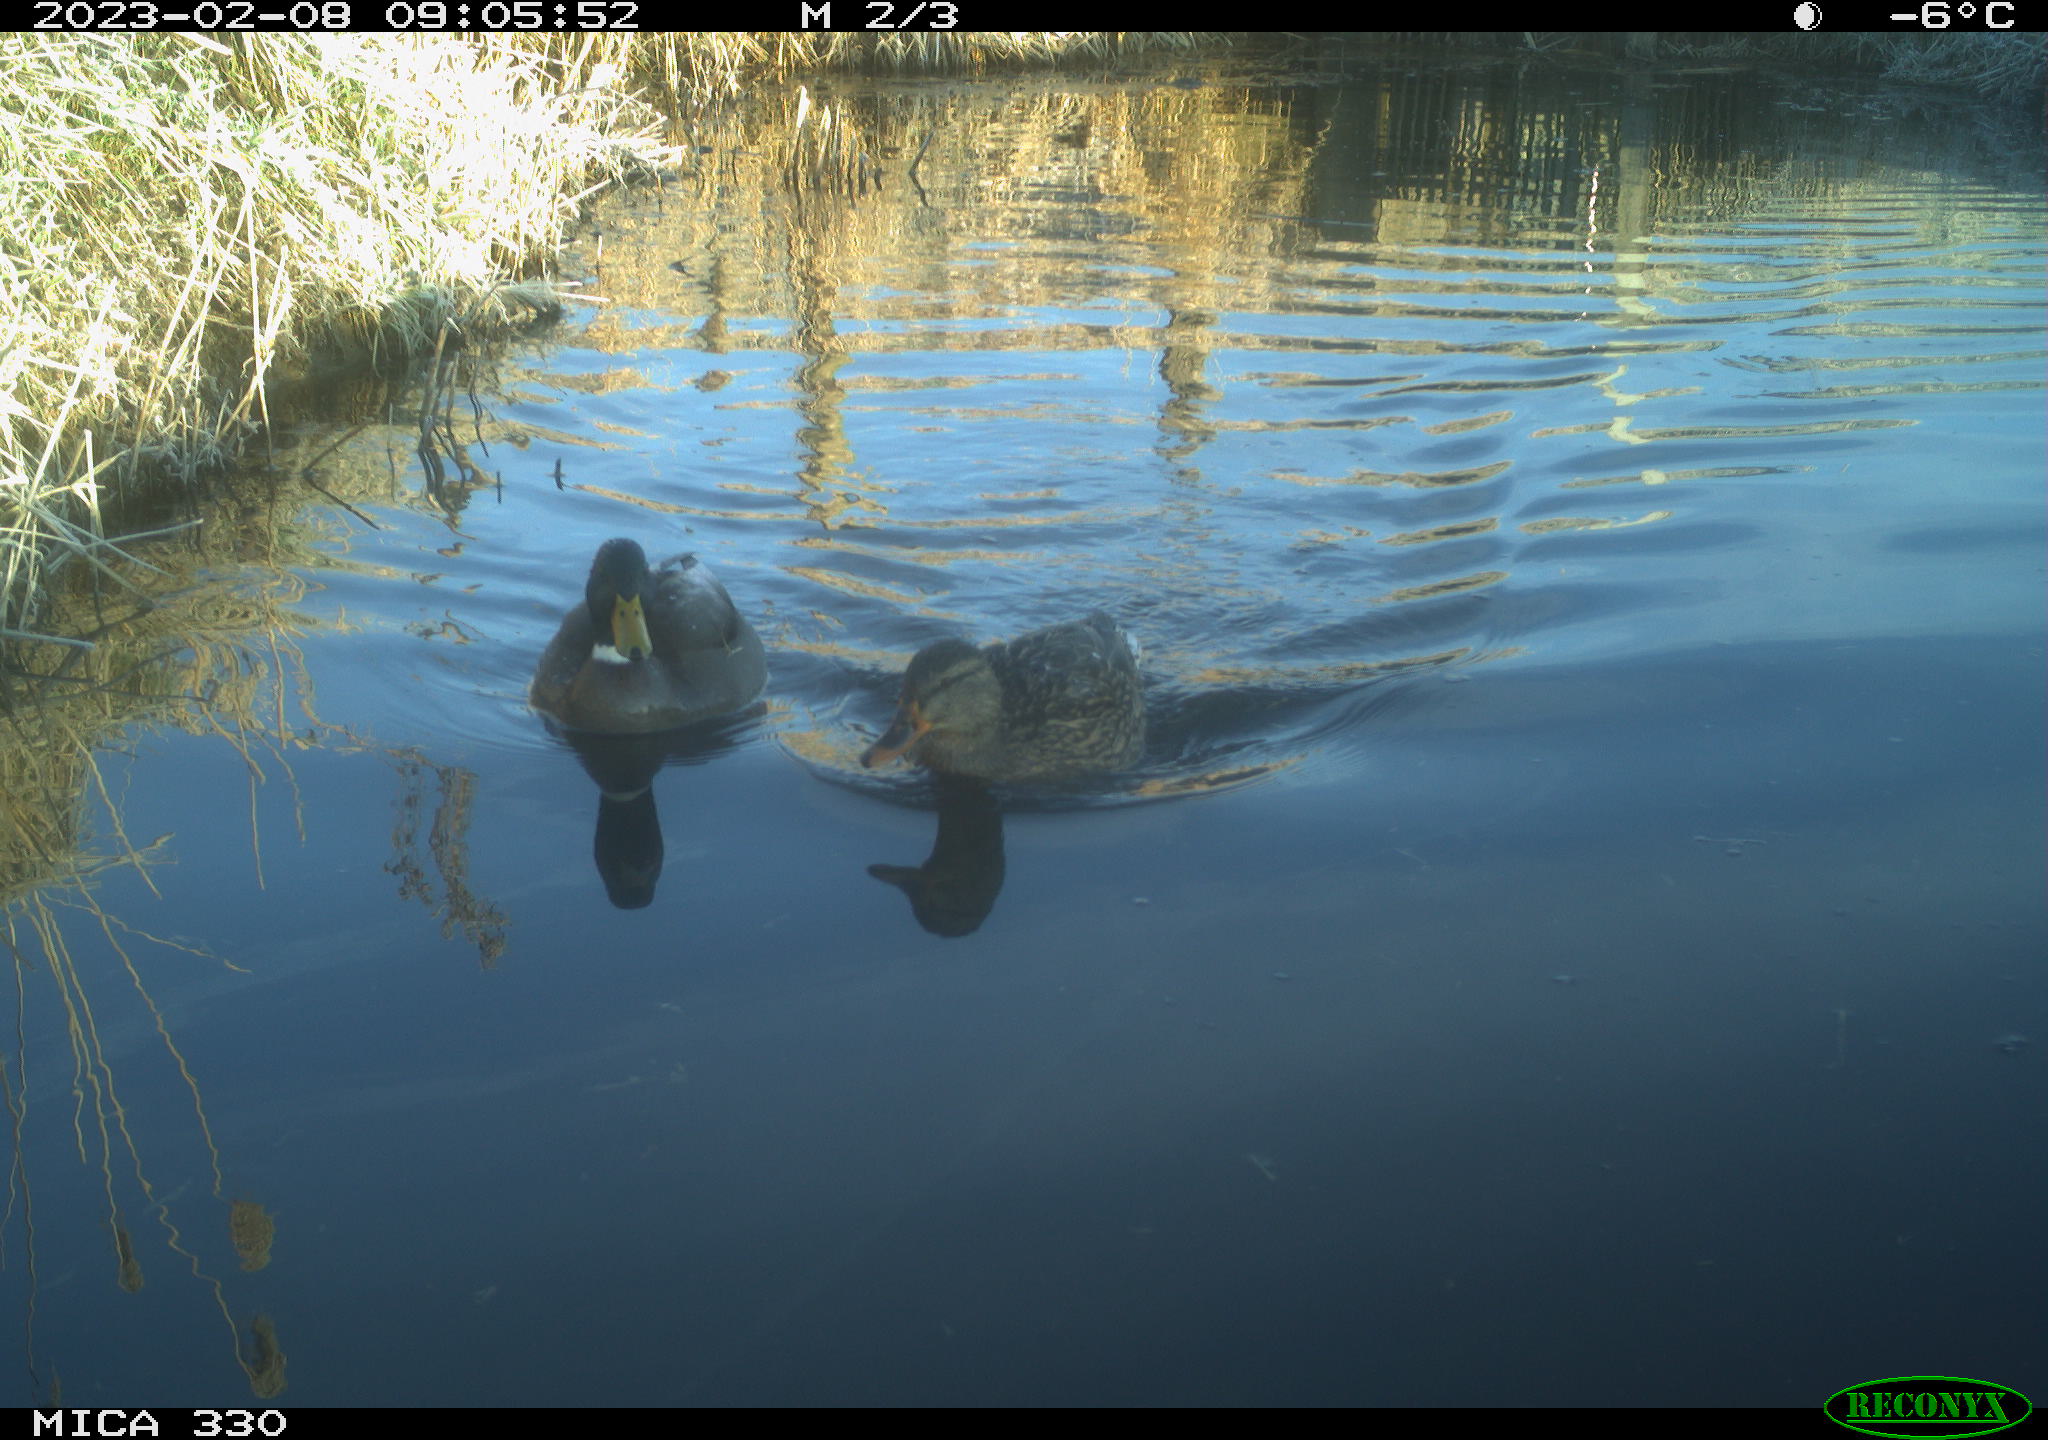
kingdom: Animalia
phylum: Chordata
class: Aves
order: Anseriformes
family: Anatidae
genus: Anas
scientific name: Anas
